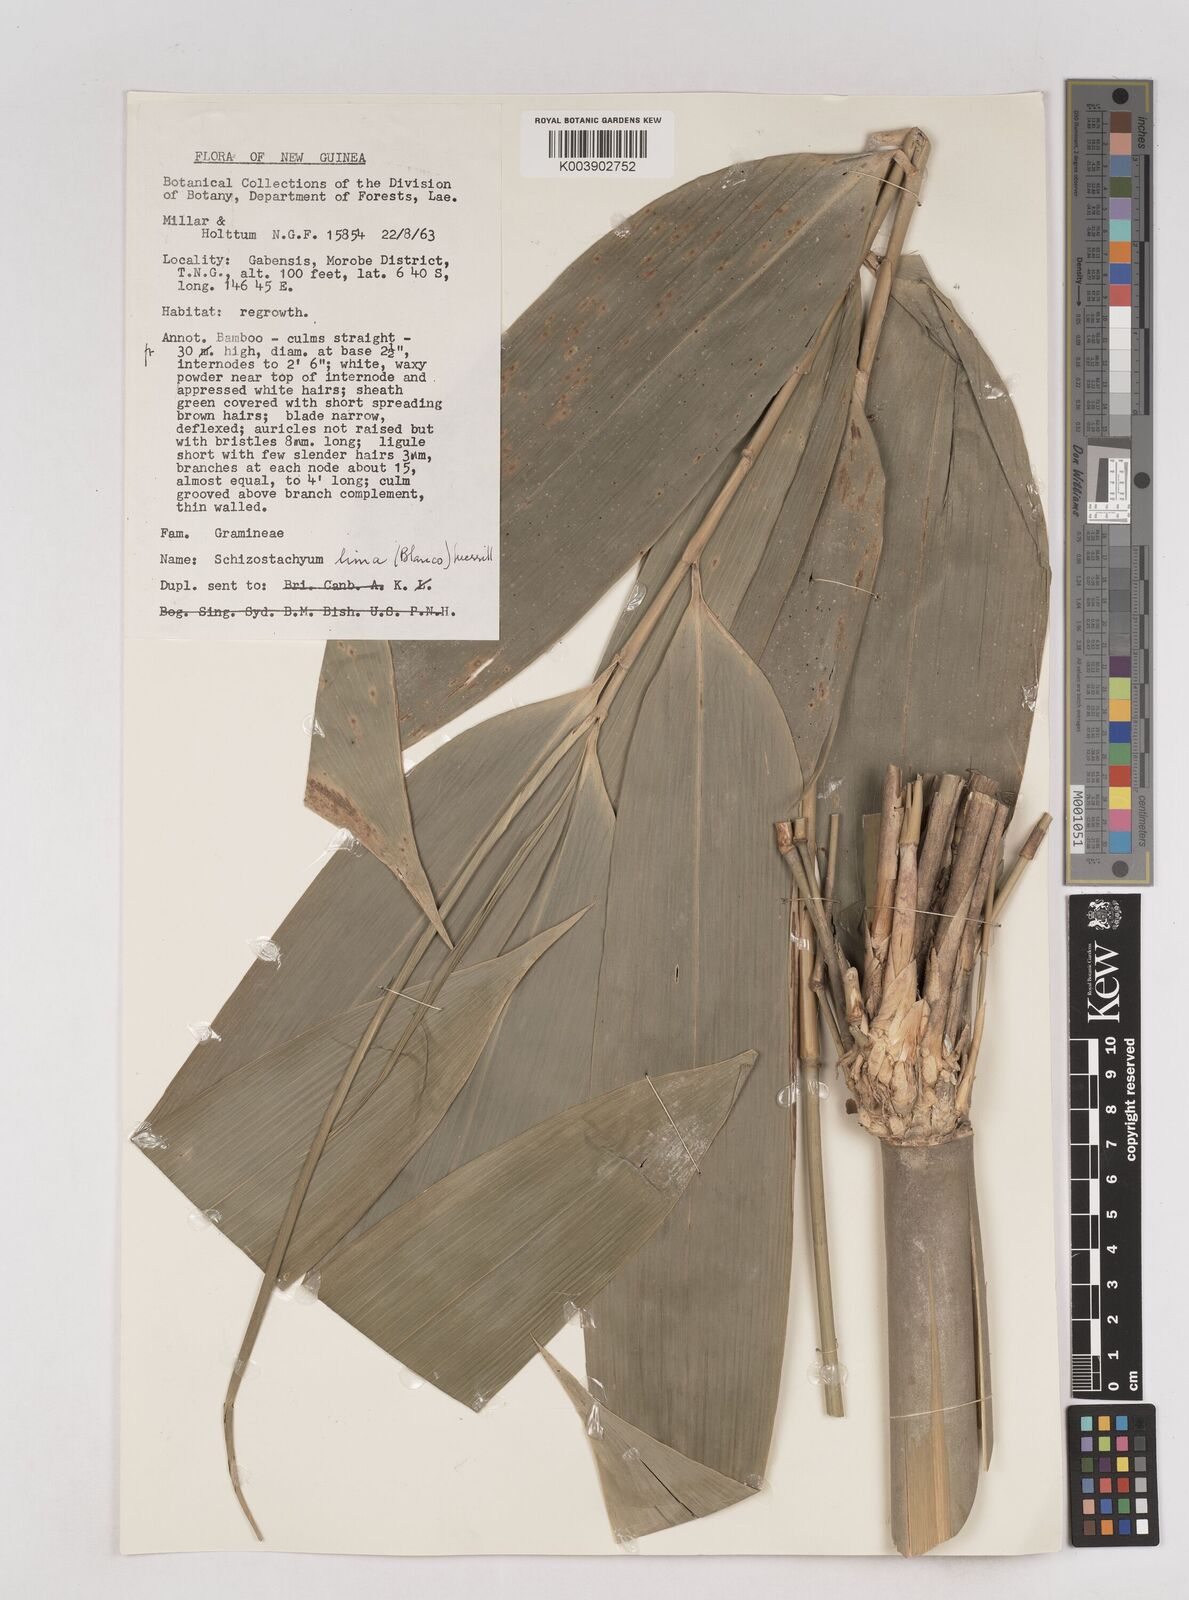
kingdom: Plantae
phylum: Tracheophyta
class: Liliopsida
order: Poales
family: Poaceae
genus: Schizostachyum
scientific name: Schizostachyum lima
